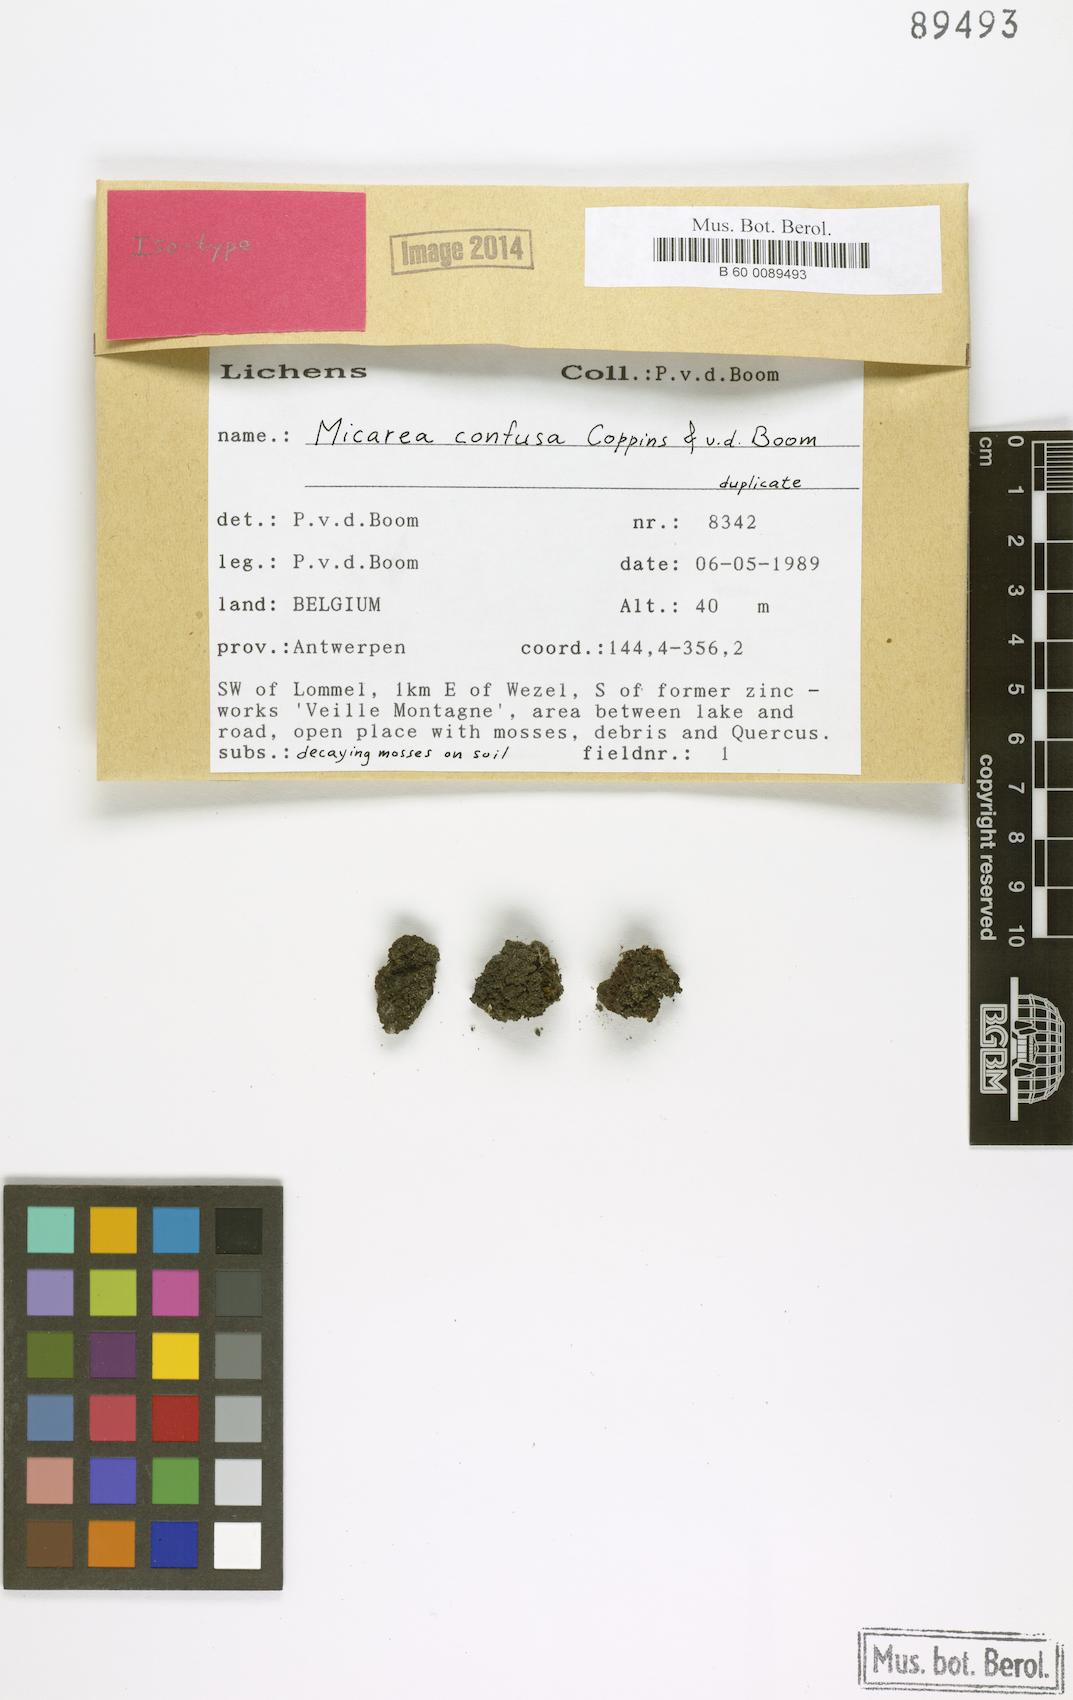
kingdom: Fungi
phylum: Ascomycota
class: Lecanoromycetes
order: Lecanorales
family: Byssolomataceae
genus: Micarea
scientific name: Micarea confusa
